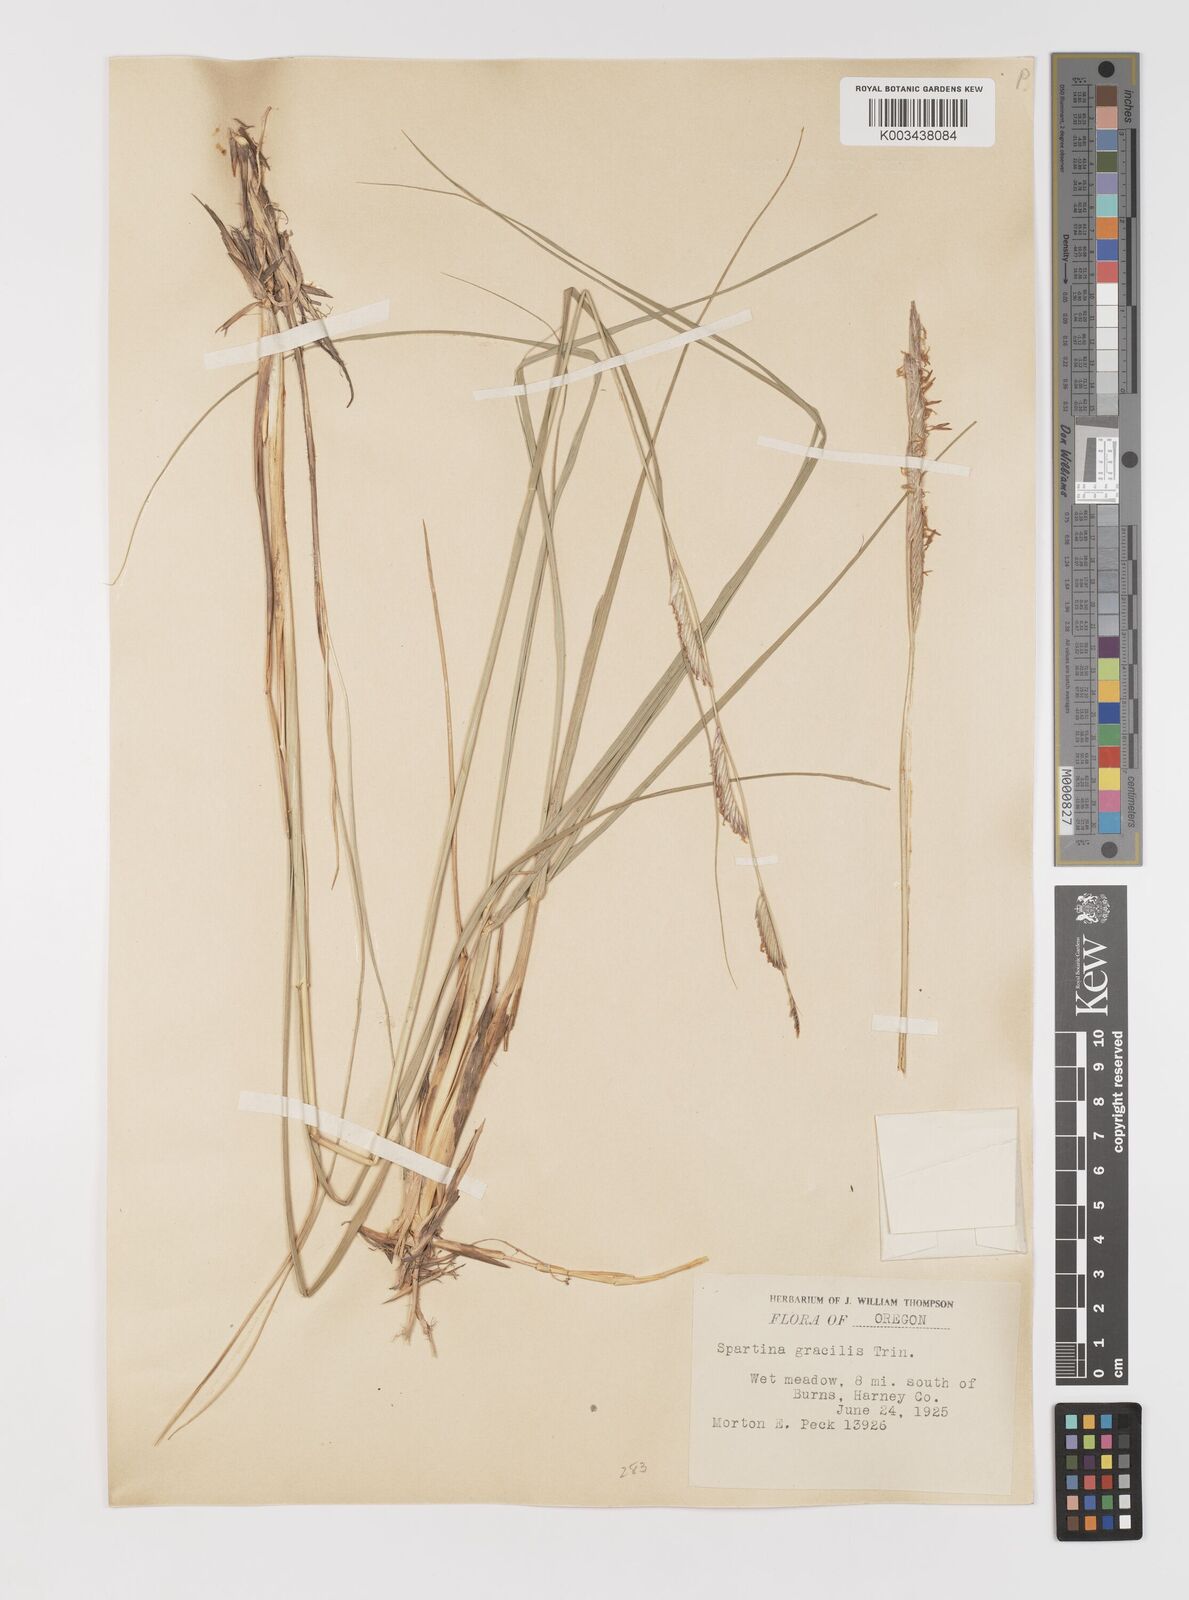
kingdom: Plantae
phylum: Tracheophyta
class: Liliopsida
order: Poales
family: Poaceae
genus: Sporobolus
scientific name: Sporobolus hookerianus
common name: Alkali cordgrass
